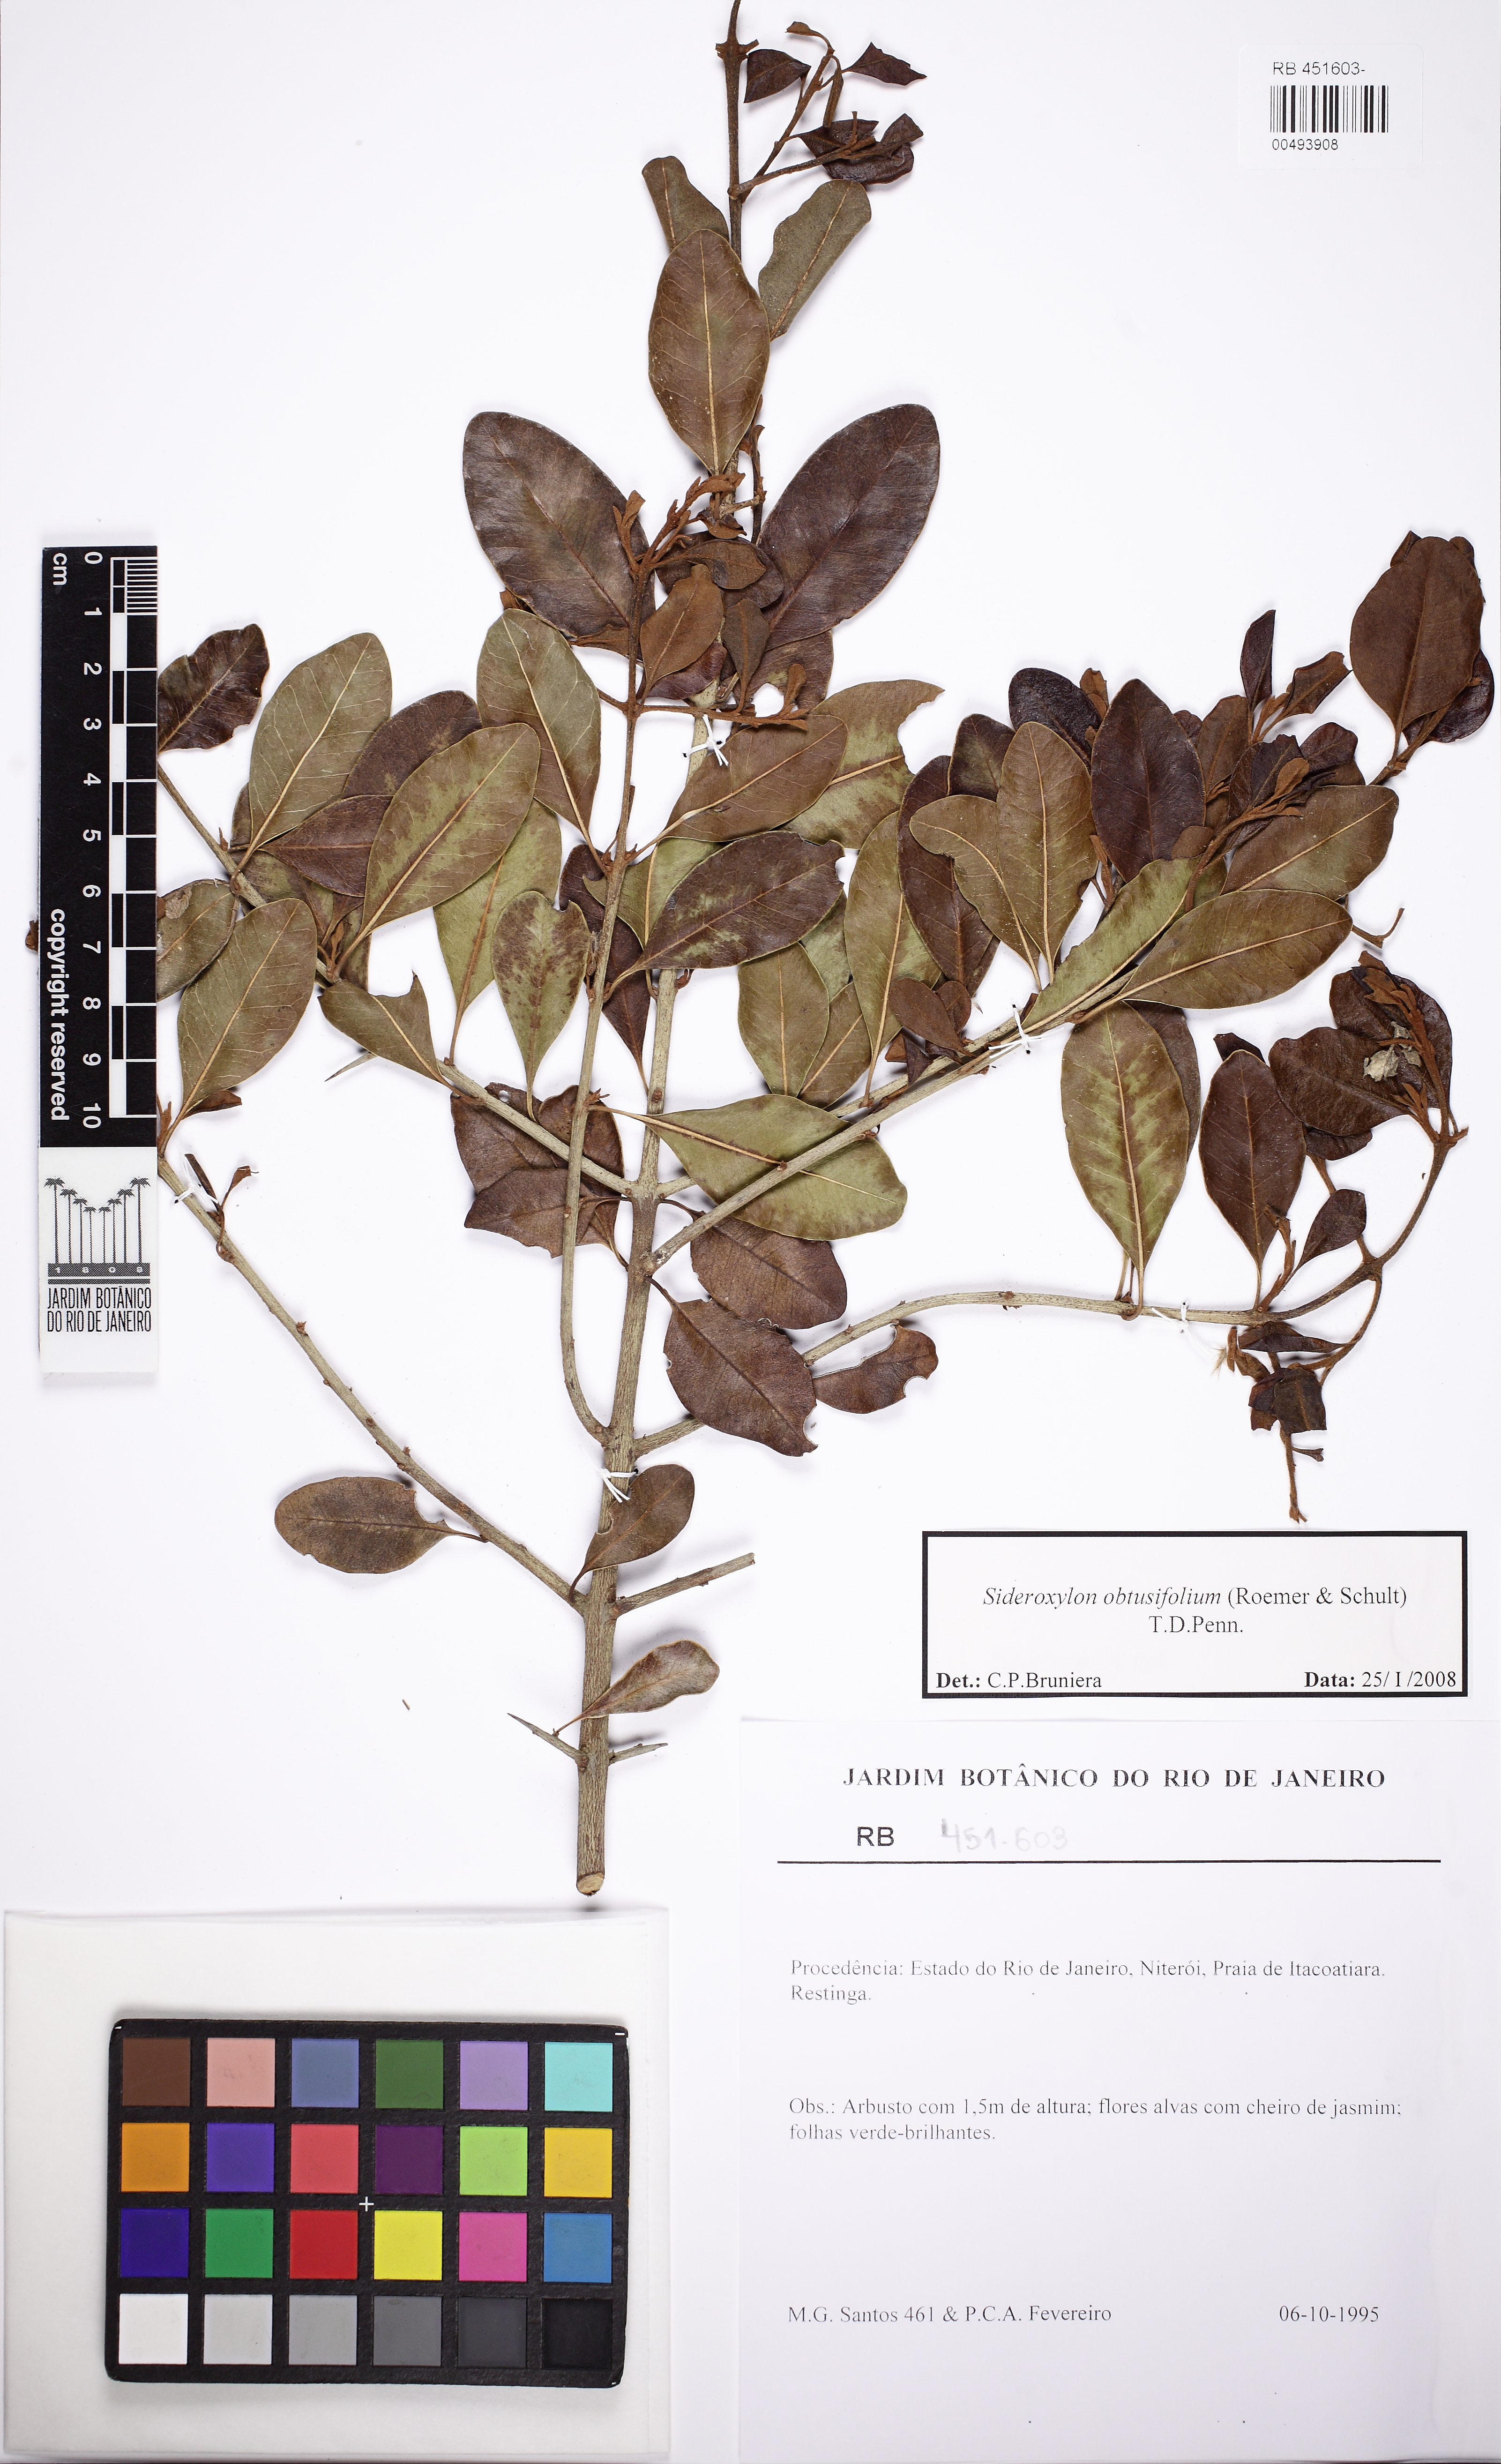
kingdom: Plantae
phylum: Tracheophyta
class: Magnoliopsida
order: Ericales
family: Sapotaceae
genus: Sideroxylon
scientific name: Sideroxylon obtusifolium
